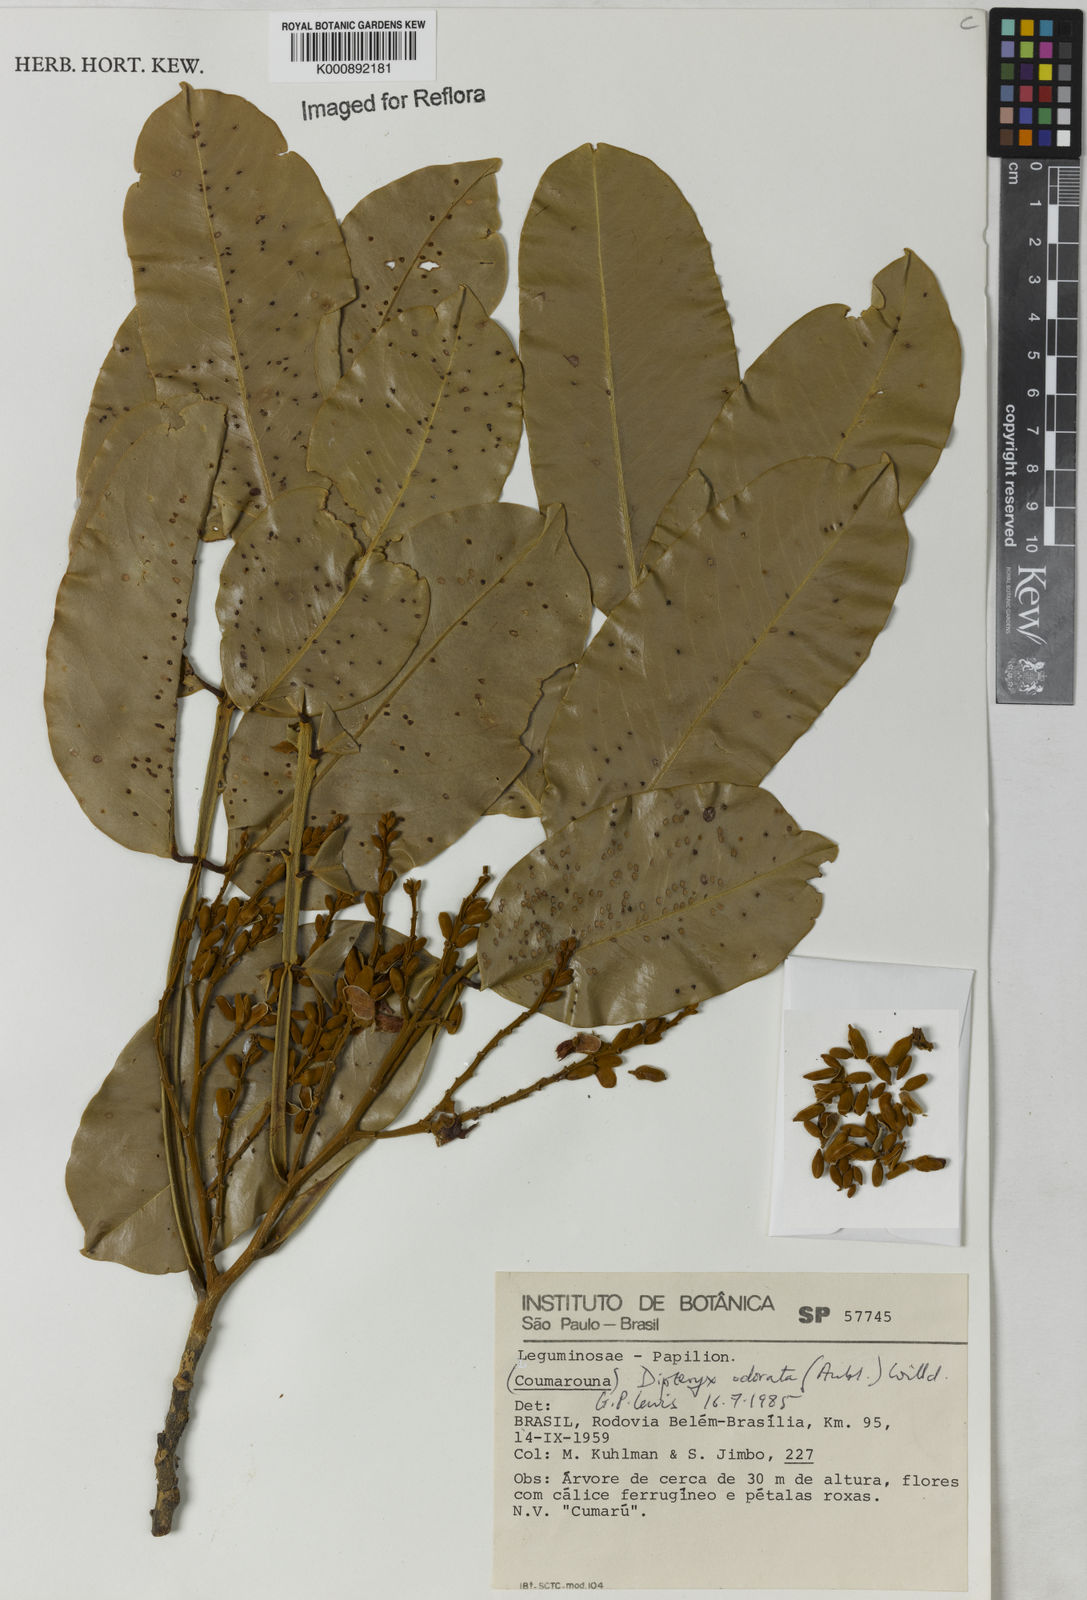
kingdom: Plantae
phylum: Tracheophyta
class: Magnoliopsida
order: Fabales
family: Fabaceae
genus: Dipteryx
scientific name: Dipteryx
